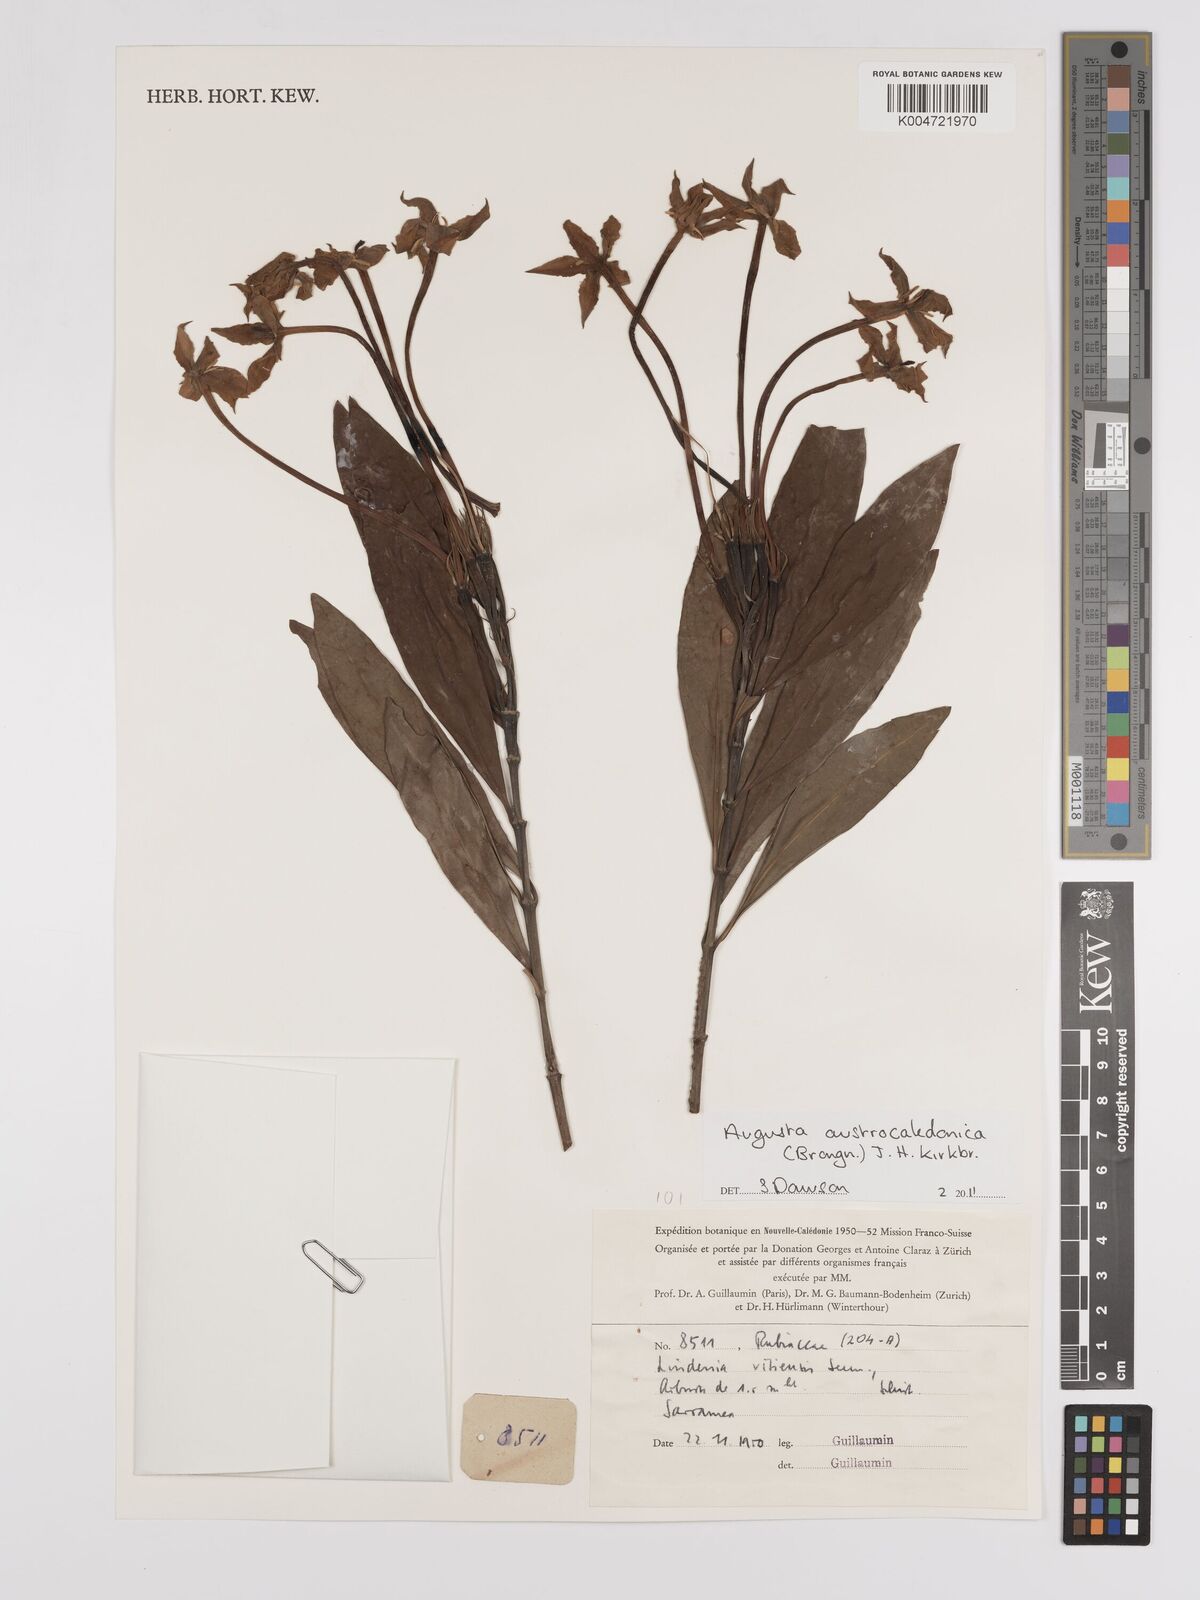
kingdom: Plantae
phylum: Tracheophyta
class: Magnoliopsida
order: Gentianales
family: Rubiaceae
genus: Augusta
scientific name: Augusta austrocaledonica
